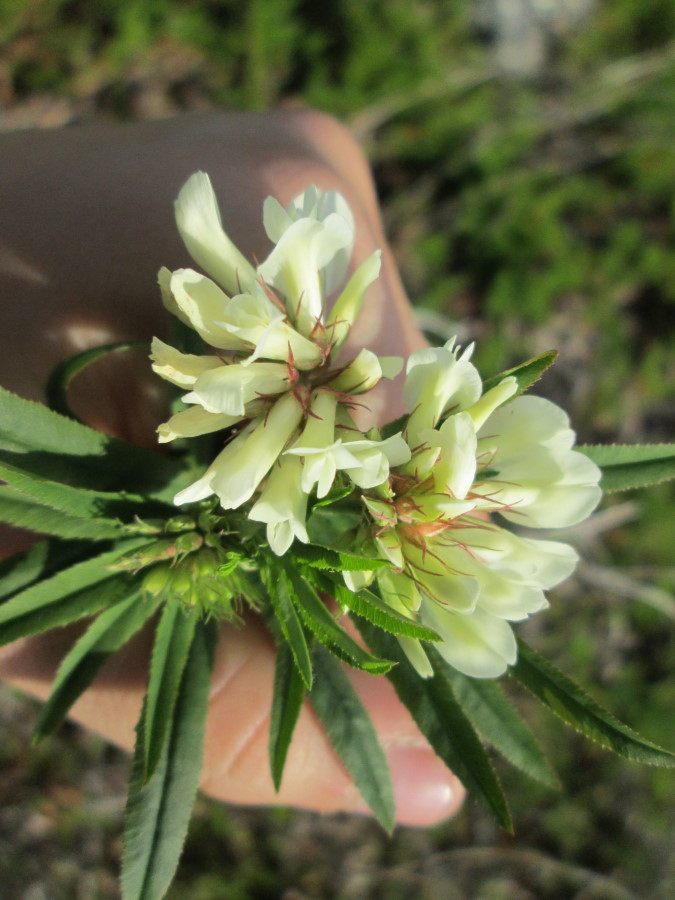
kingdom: Plantae
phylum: Tracheophyta
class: Magnoliopsida
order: Fabales
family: Fabaceae
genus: Trifolium
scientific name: Trifolium lupinaster
